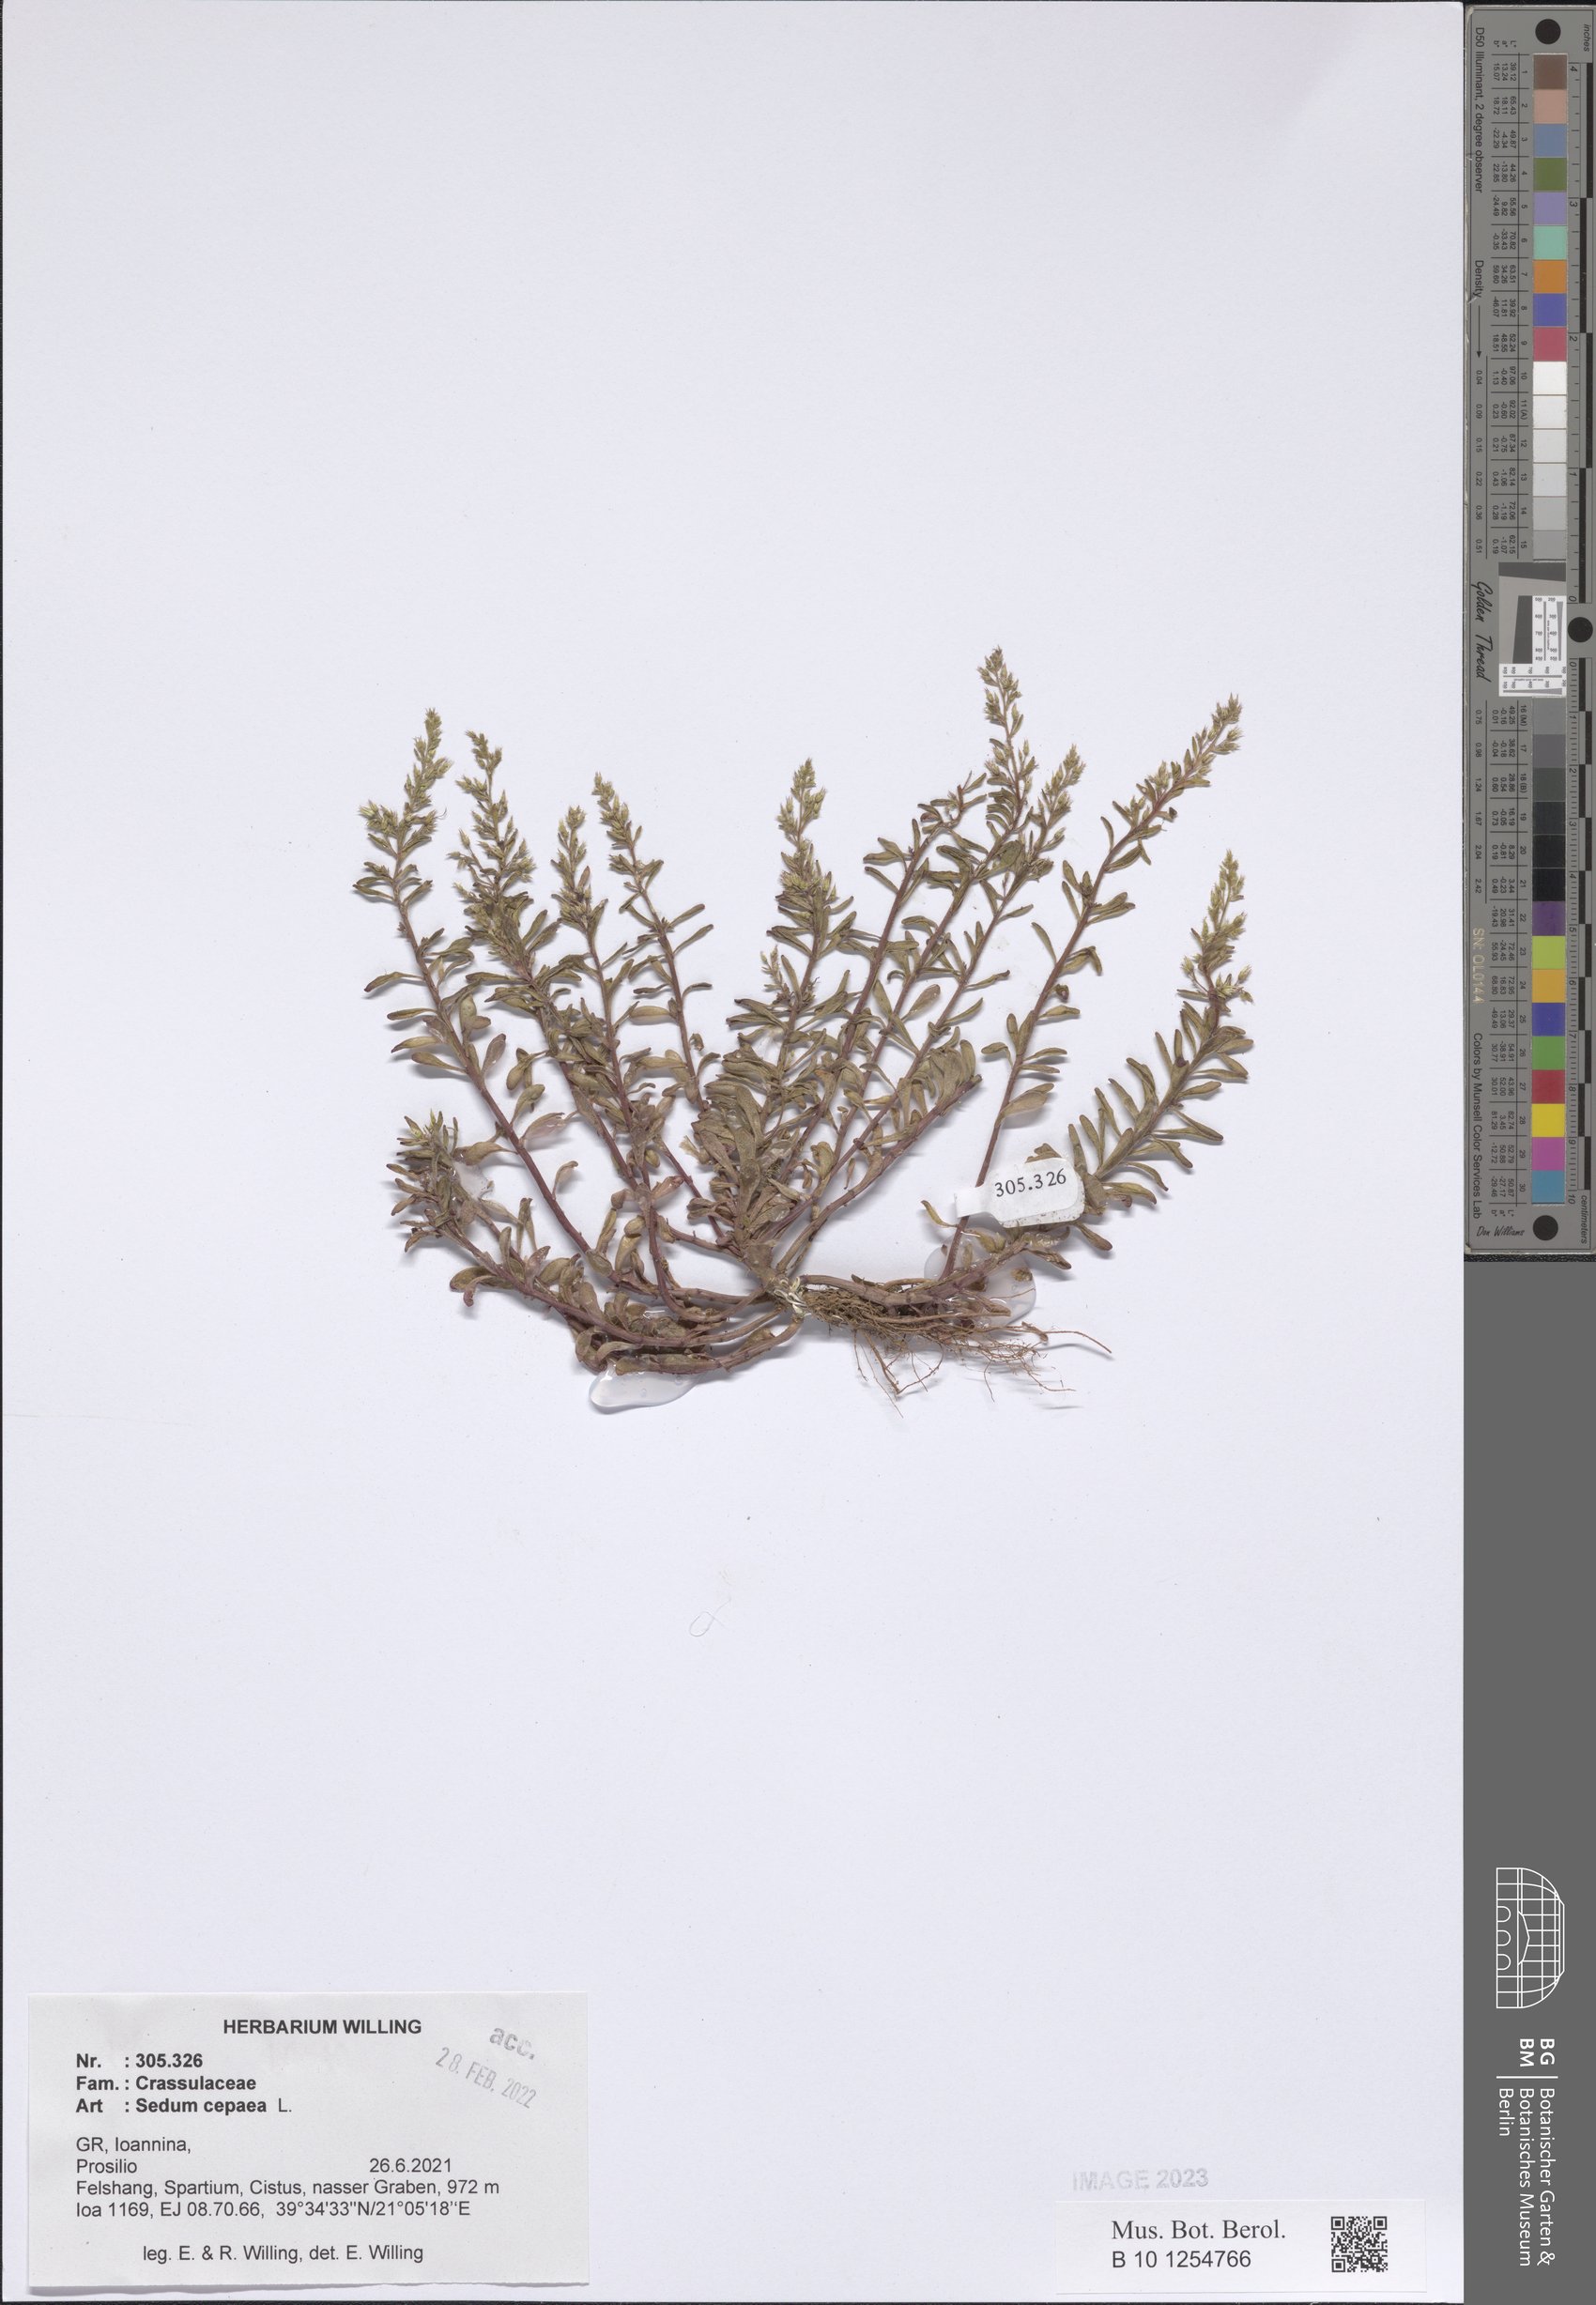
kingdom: Plantae
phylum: Tracheophyta
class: Magnoliopsida
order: Saxifragales
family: Crassulaceae
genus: Sedum
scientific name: Sedum cepaea
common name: Pink stonecrop
